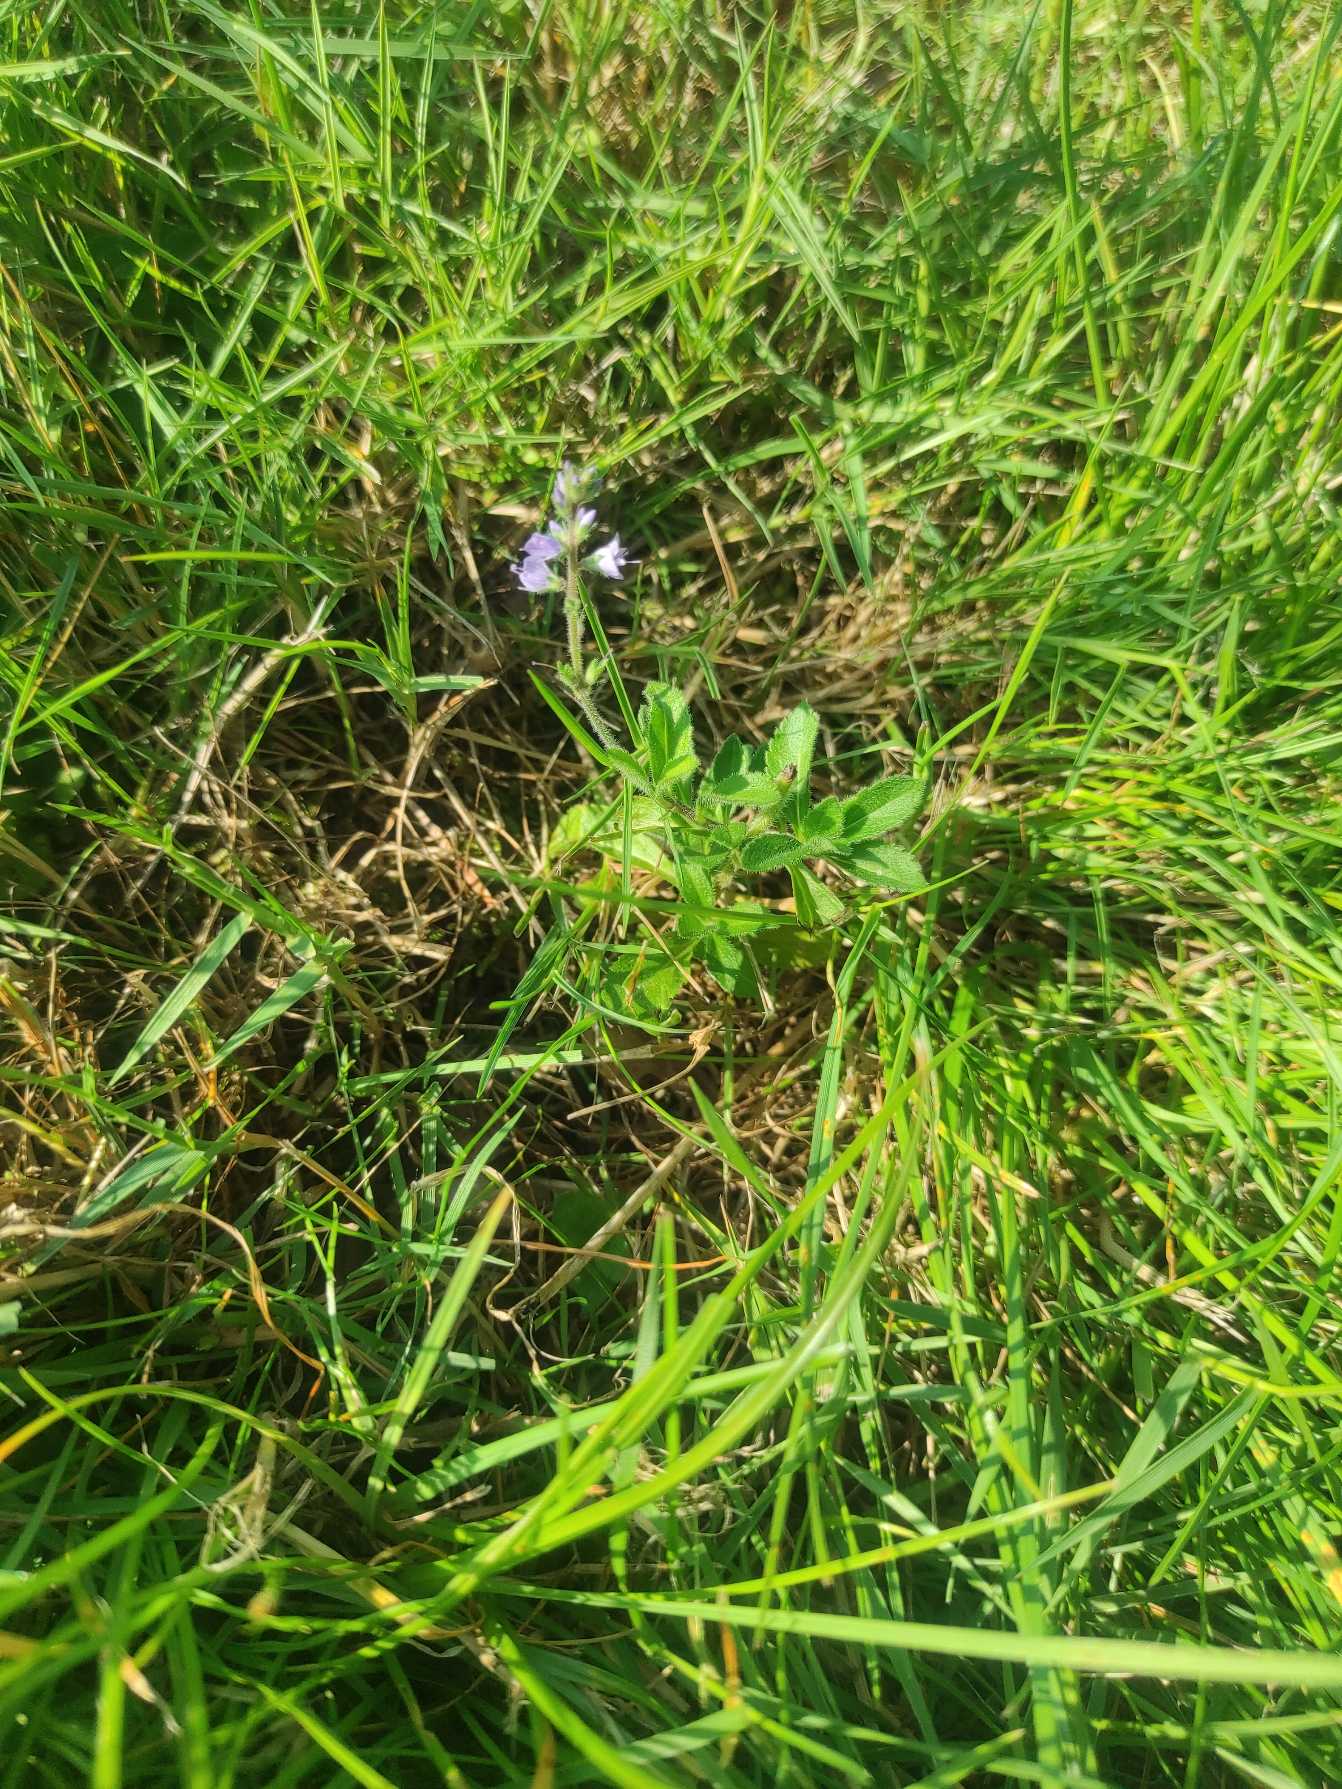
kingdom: Plantae
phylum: Tracheophyta
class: Magnoliopsida
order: Lamiales
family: Plantaginaceae
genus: Veronica
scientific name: Veronica officinalis
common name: Læge-ærenpris
